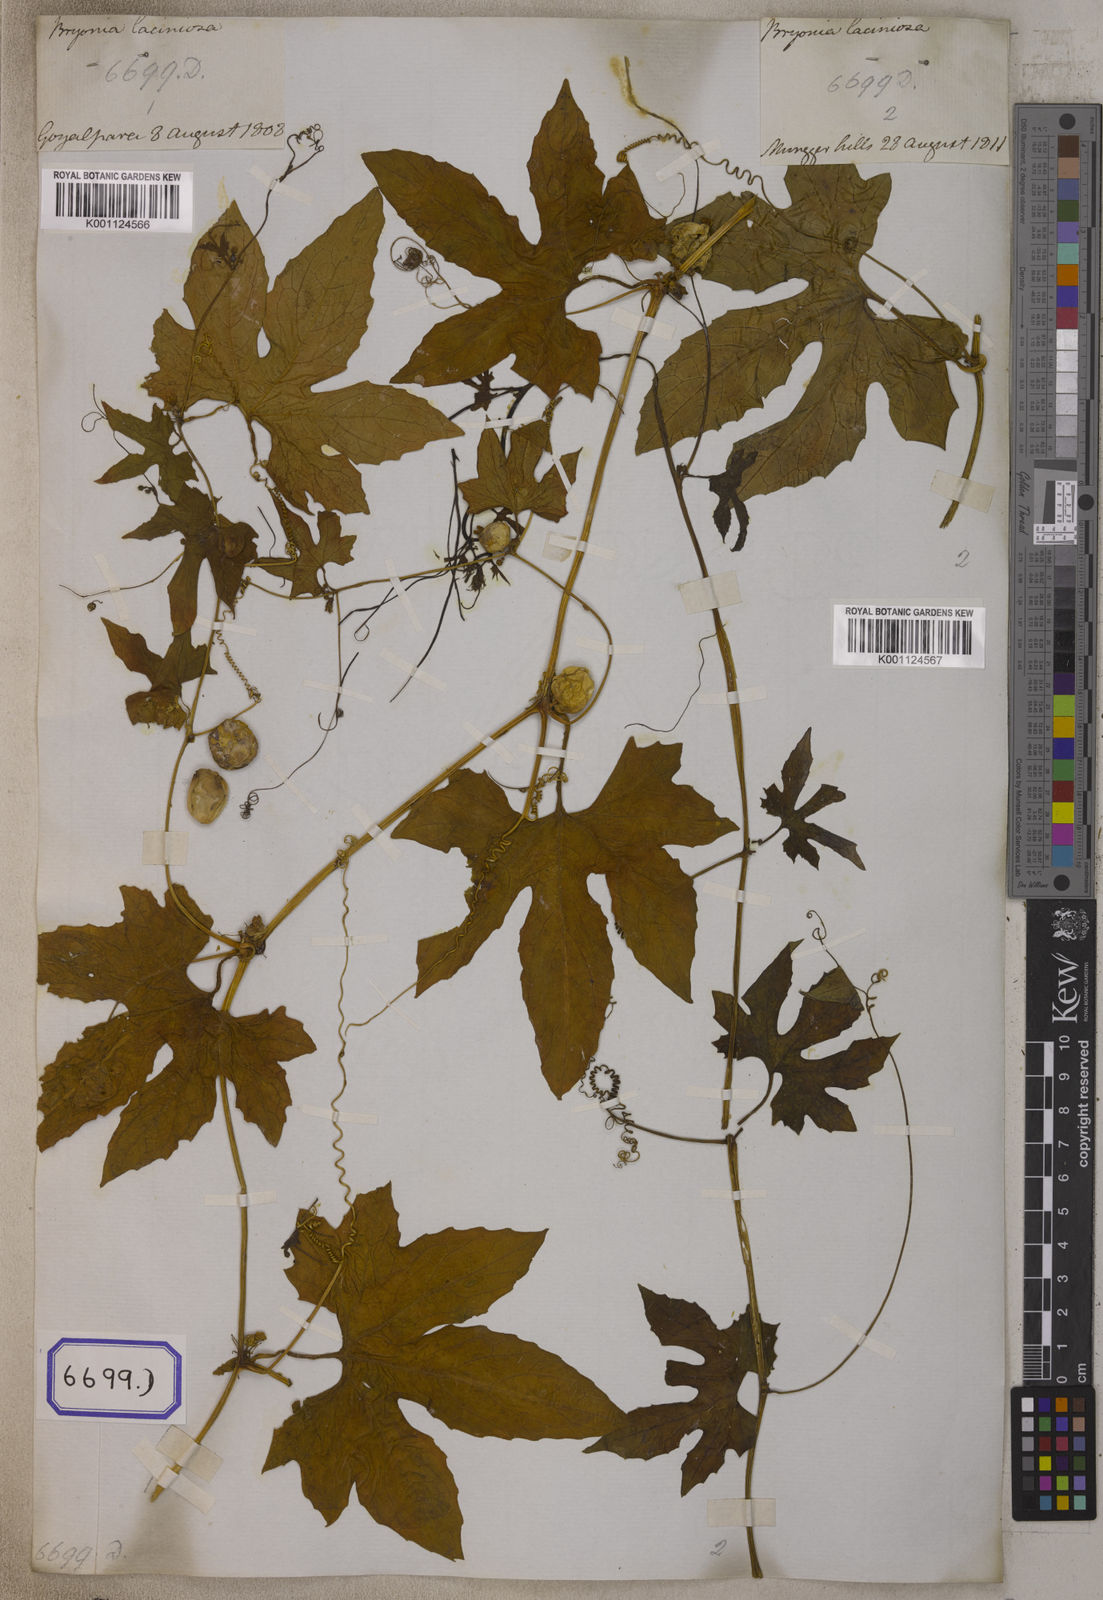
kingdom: Plantae
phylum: Tracheophyta
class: Magnoliopsida
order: Cucurbitales
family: Cucurbitaceae
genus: Diplocyclos
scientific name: Diplocyclos palmatus
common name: Striped-cucumber
